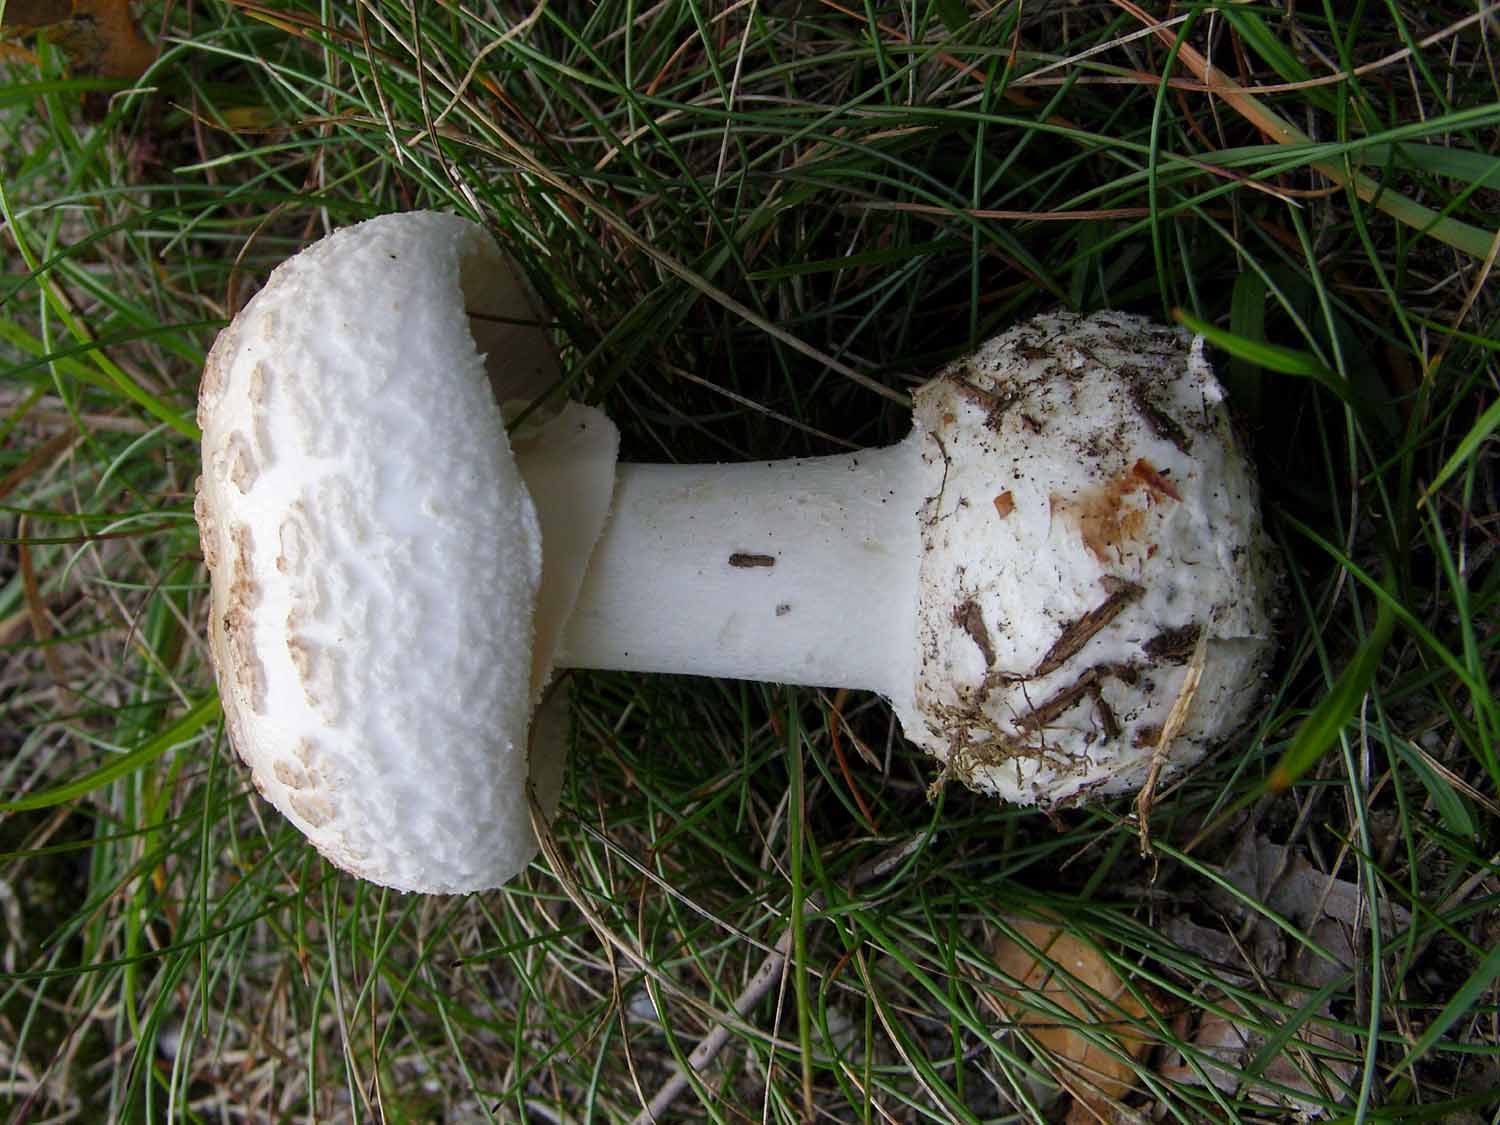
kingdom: Fungi
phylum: Basidiomycota
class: Agaricomycetes
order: Agaricales
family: Amanitaceae
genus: Amanita
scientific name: Amanita citrina
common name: kugleknoldet fluesvamp
